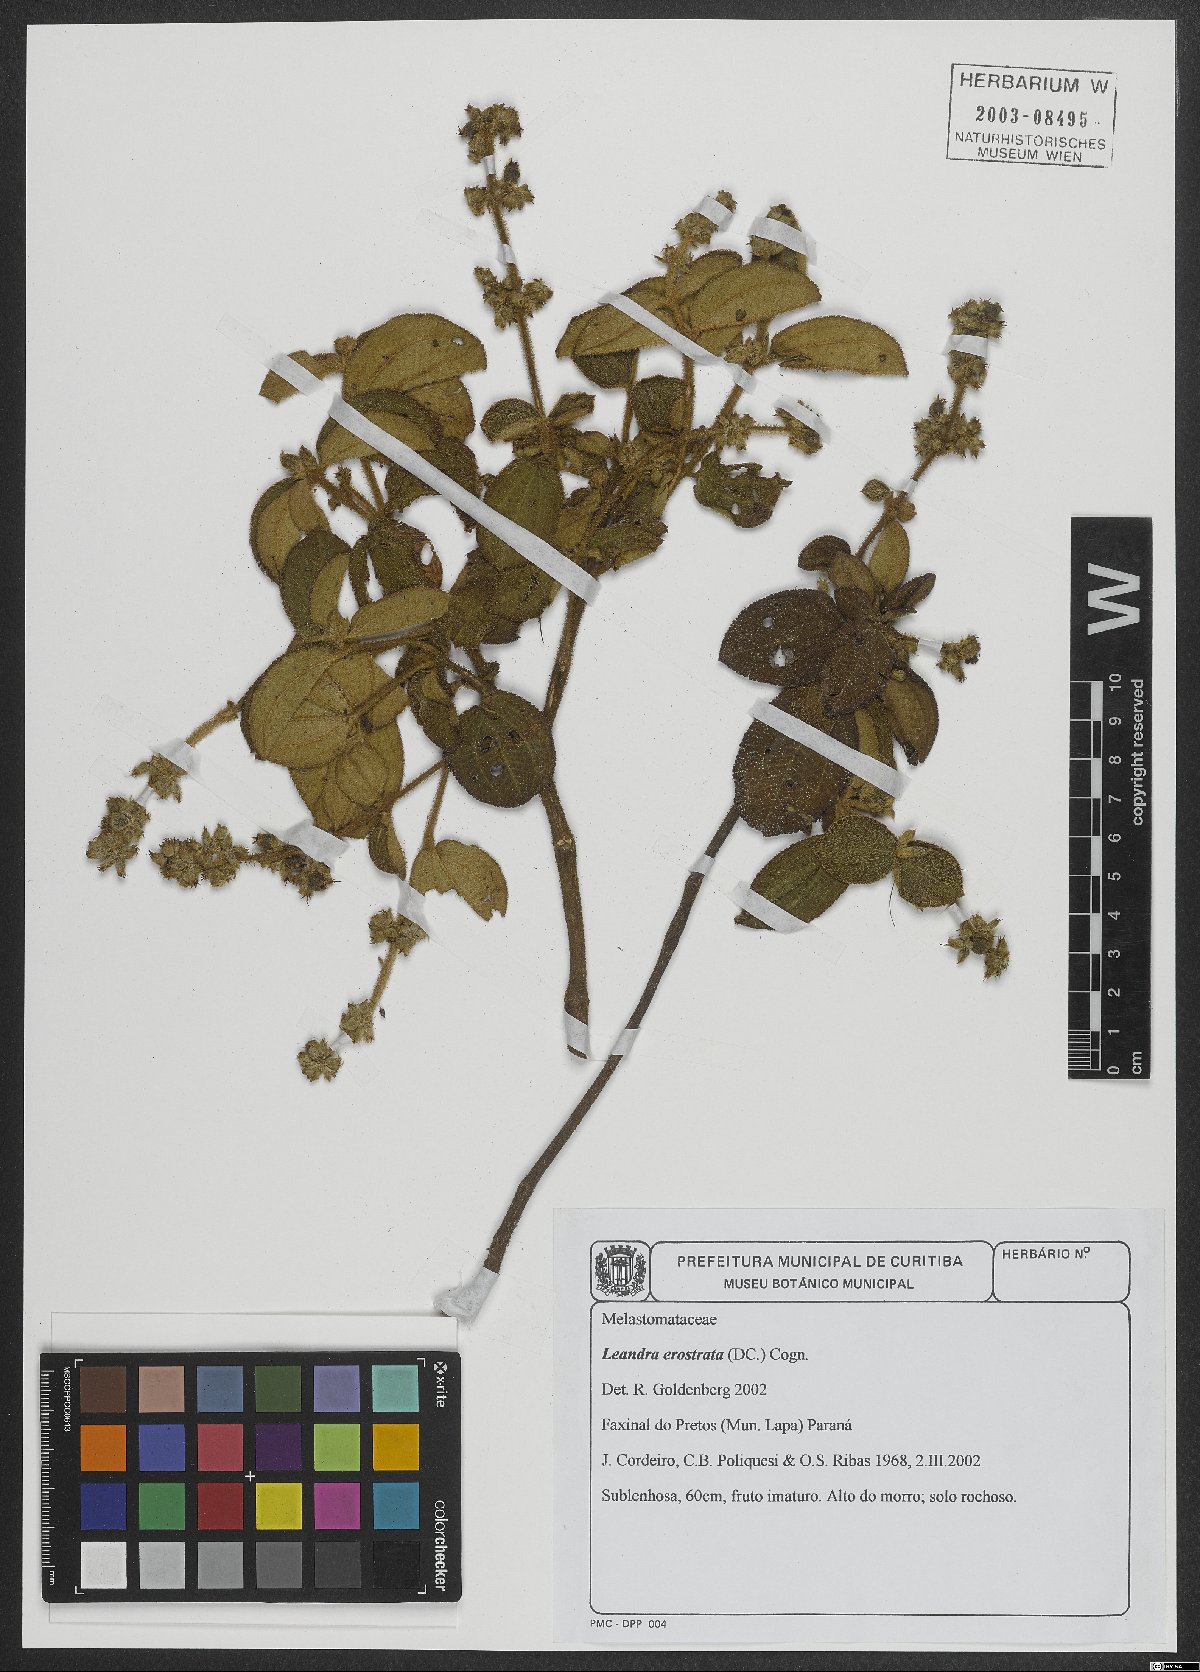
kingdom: Plantae
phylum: Tracheophyta
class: Magnoliopsida
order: Myrtales
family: Melastomataceae
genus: Miconia
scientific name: Miconia erostrata
